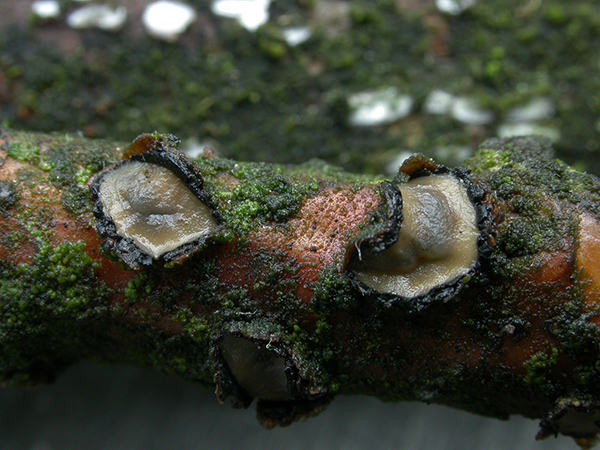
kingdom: Fungi
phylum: Ascomycota
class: Leotiomycetes
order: Rhytismatales
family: Rhytismataceae
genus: Colpoma
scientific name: Colpoma quercinum
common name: ege-sprækkeskive
